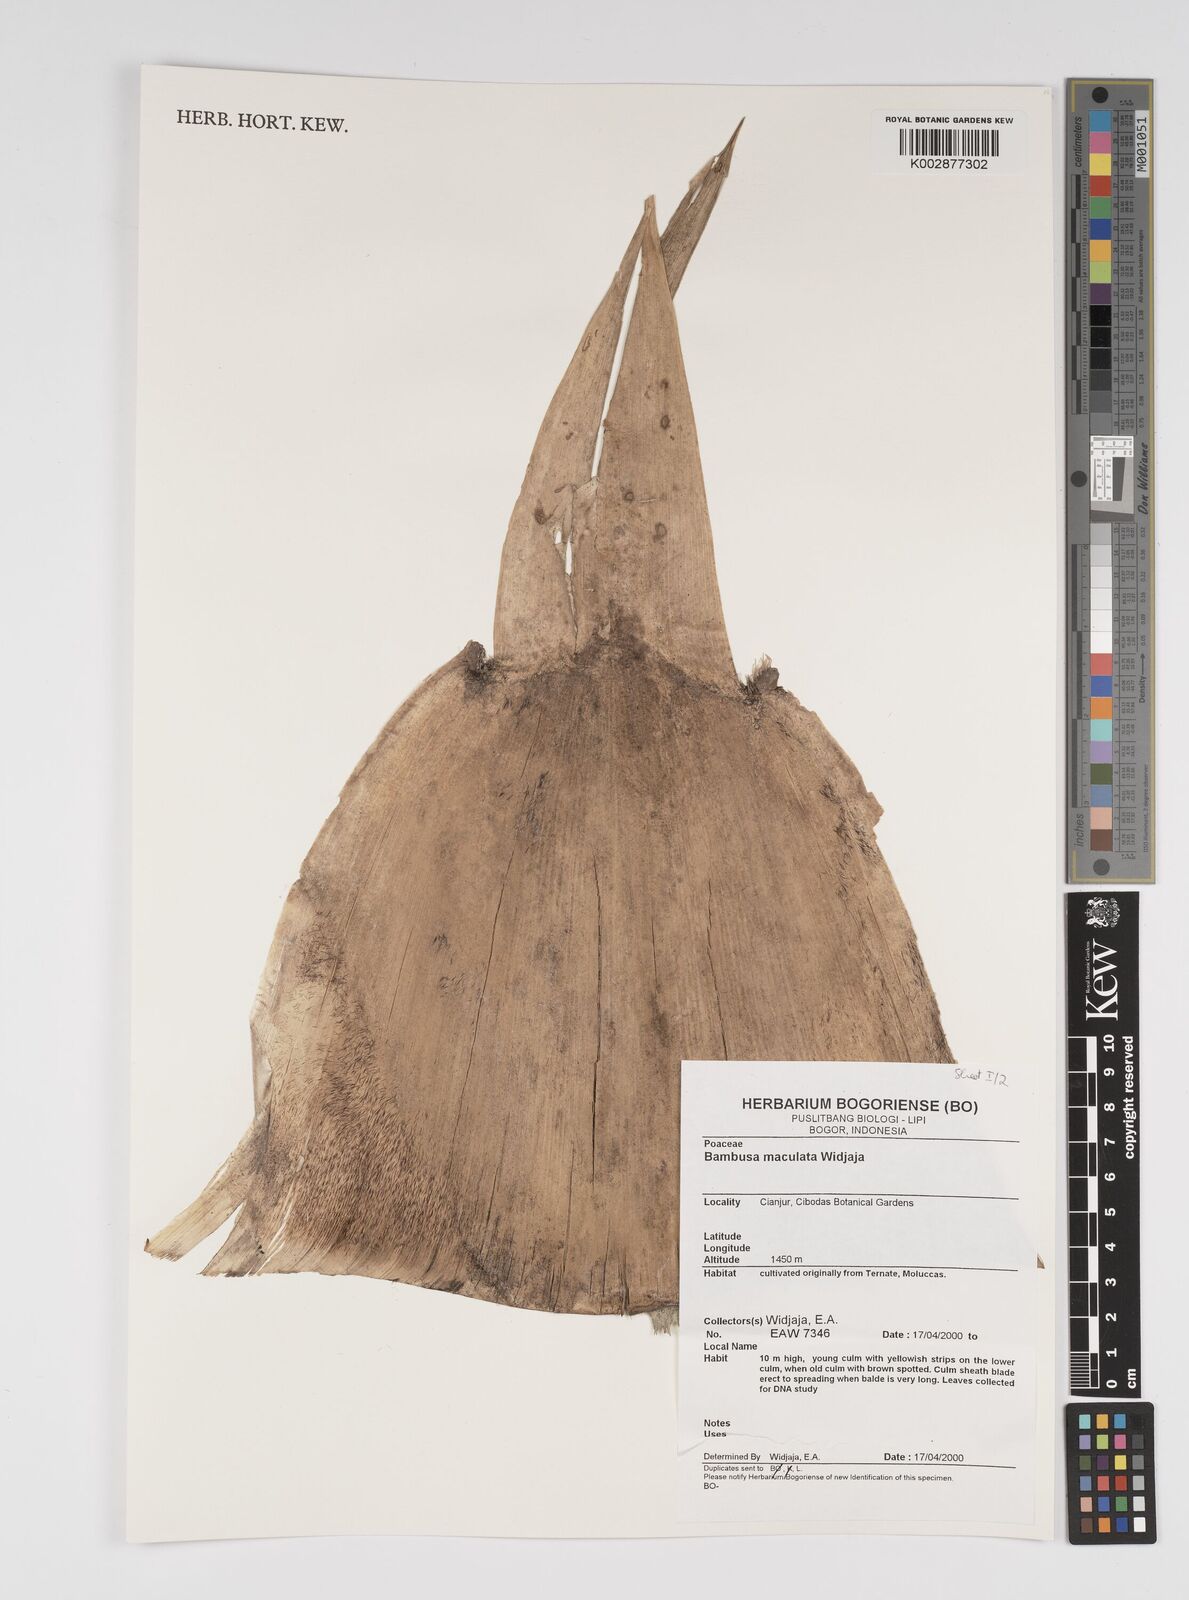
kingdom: Plantae
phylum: Tracheophyta
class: Liliopsida
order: Poales
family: Poaceae
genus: Bambusa
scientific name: Bambusa maculata
